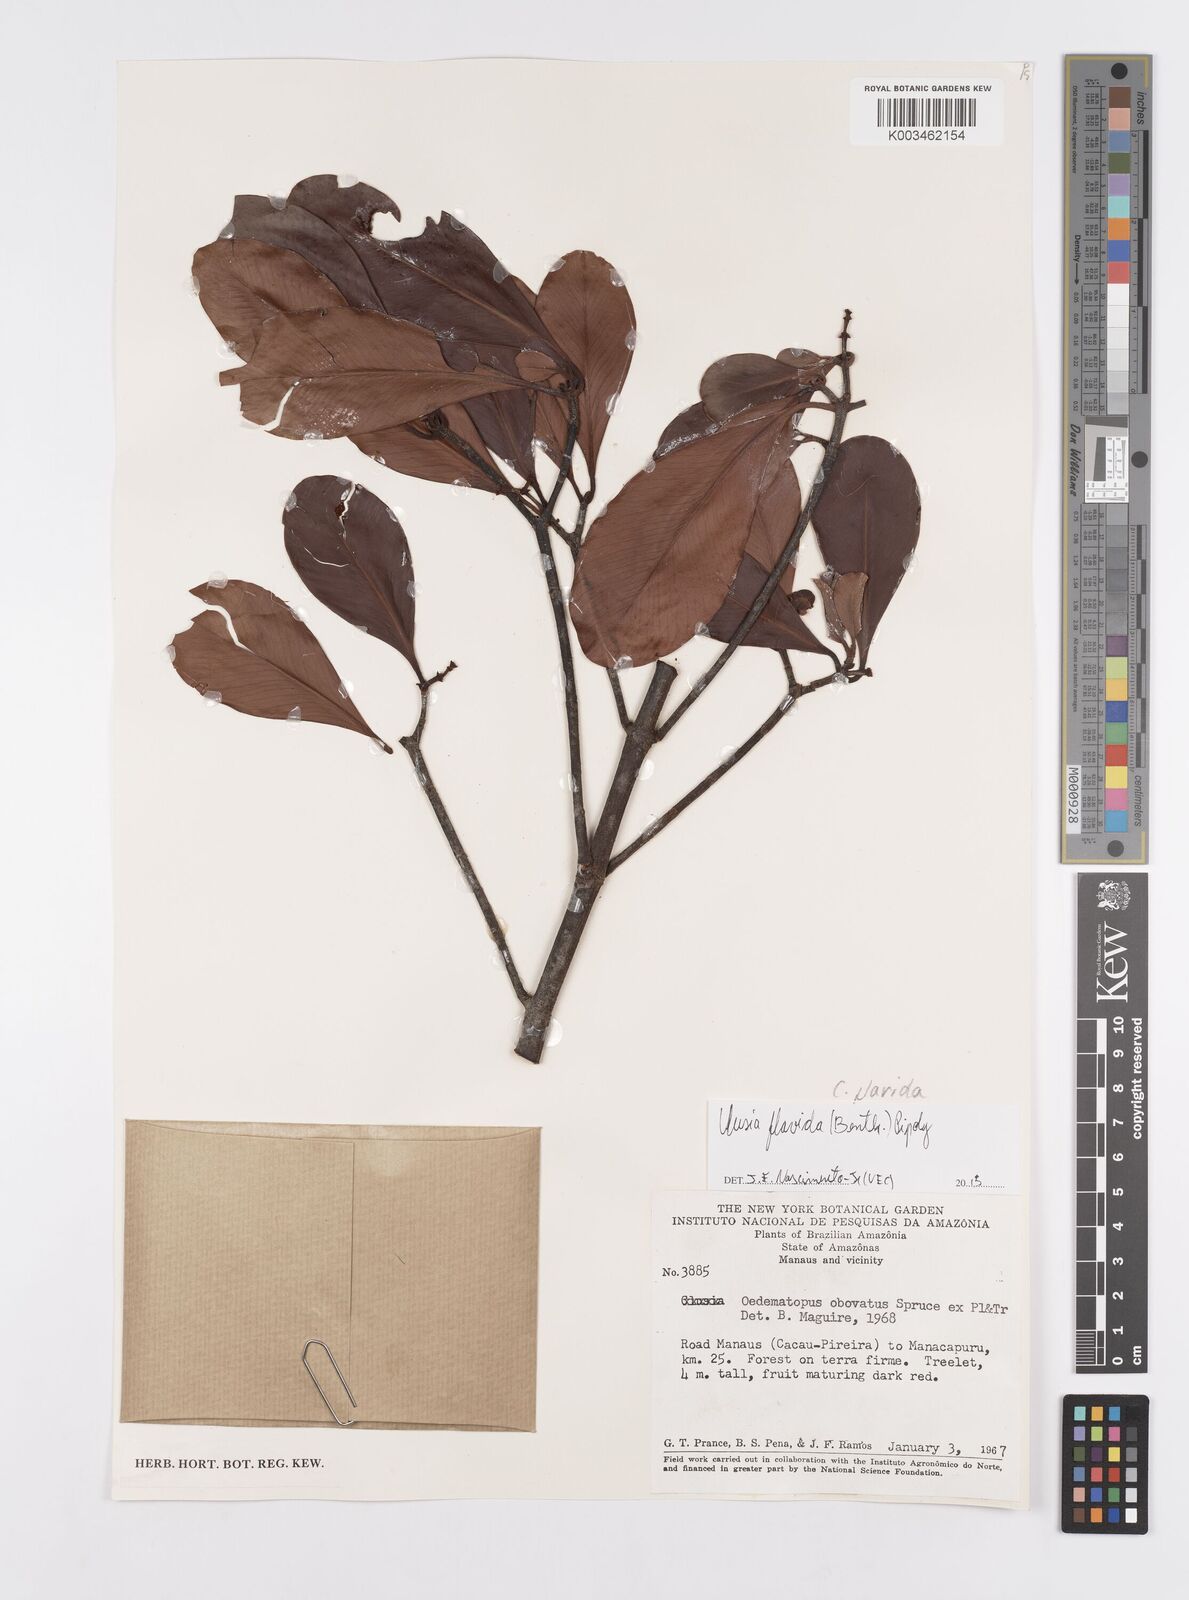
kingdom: Plantae
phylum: Tracheophyta
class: Magnoliopsida
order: Malpighiales
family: Clusiaceae
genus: Clusia
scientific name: Clusia flavida
